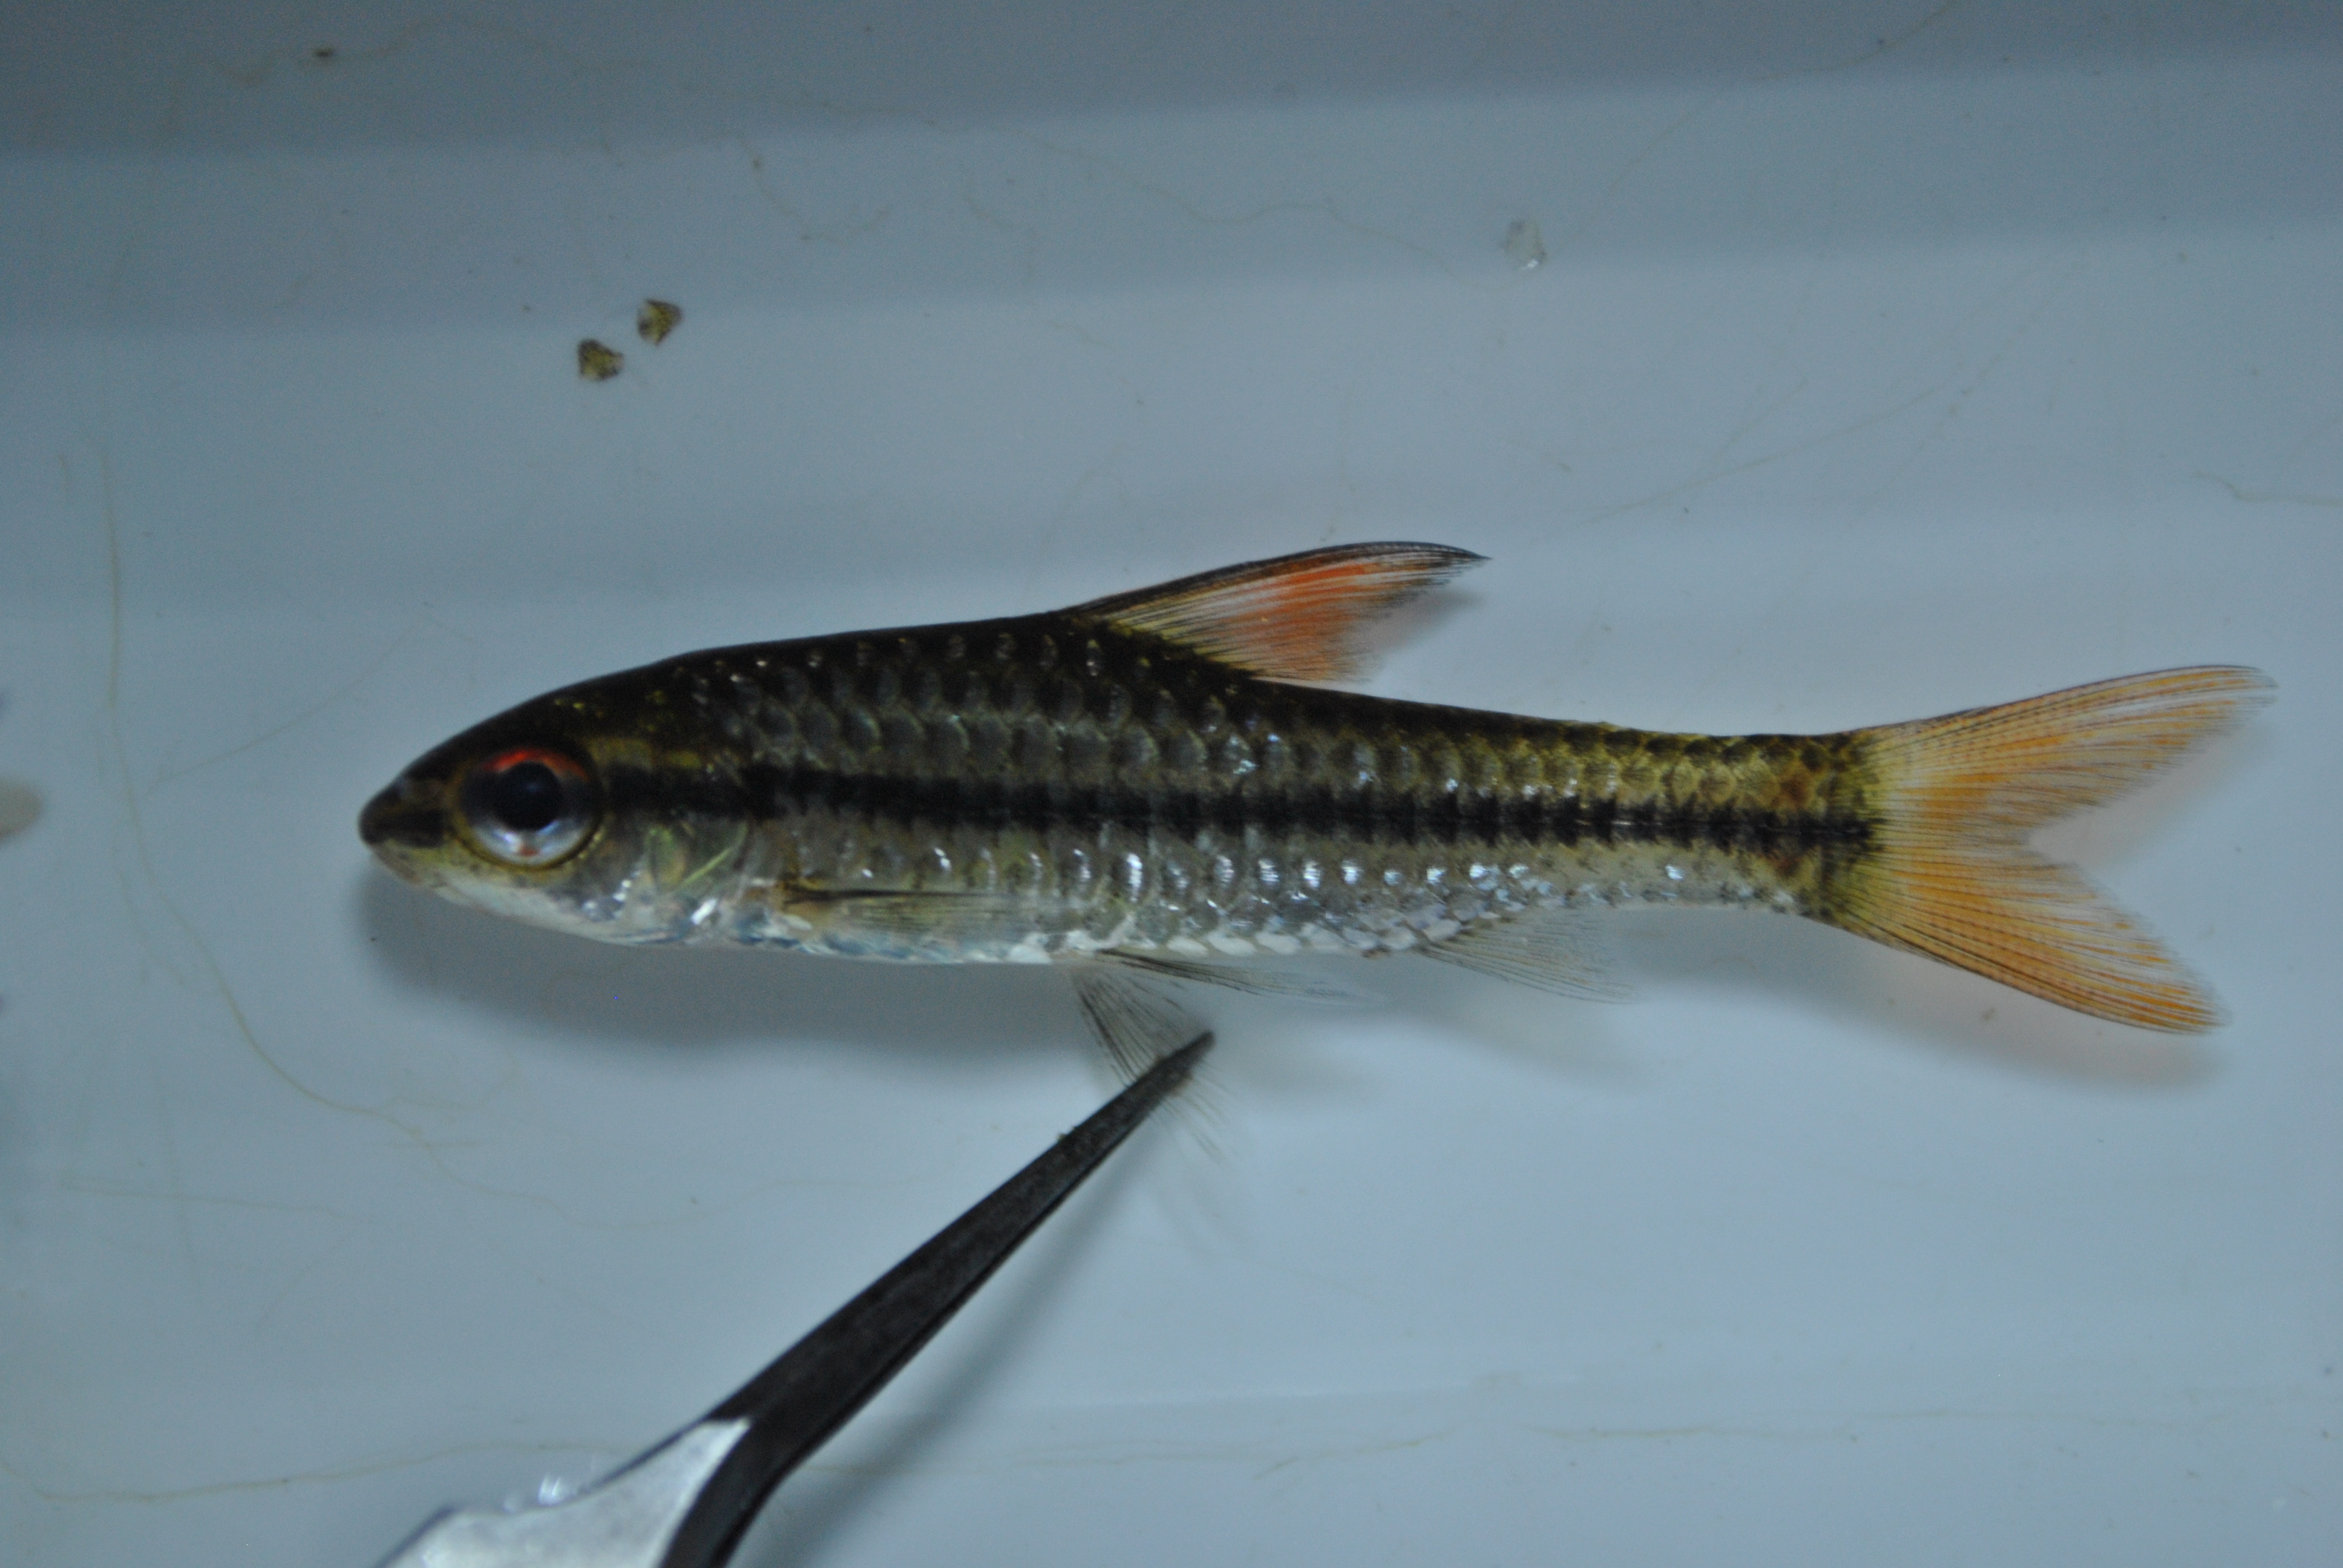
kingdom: Animalia
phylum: Chordata
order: Cypriniformes
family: Cyprinidae
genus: Enteromius
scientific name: Enteromius barnardi
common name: Blackback barb
